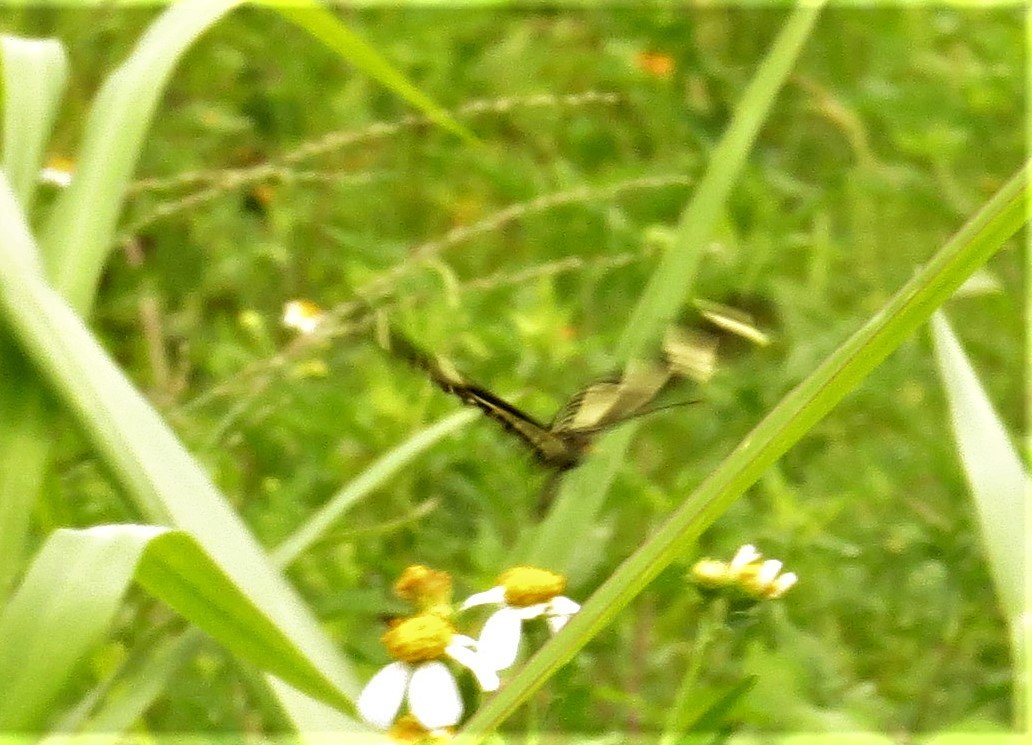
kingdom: Animalia
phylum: Arthropoda
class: Insecta
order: Lepidoptera
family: Nymphalidae
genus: Heliconius
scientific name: Heliconius charithonia
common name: Zebra Longwing
